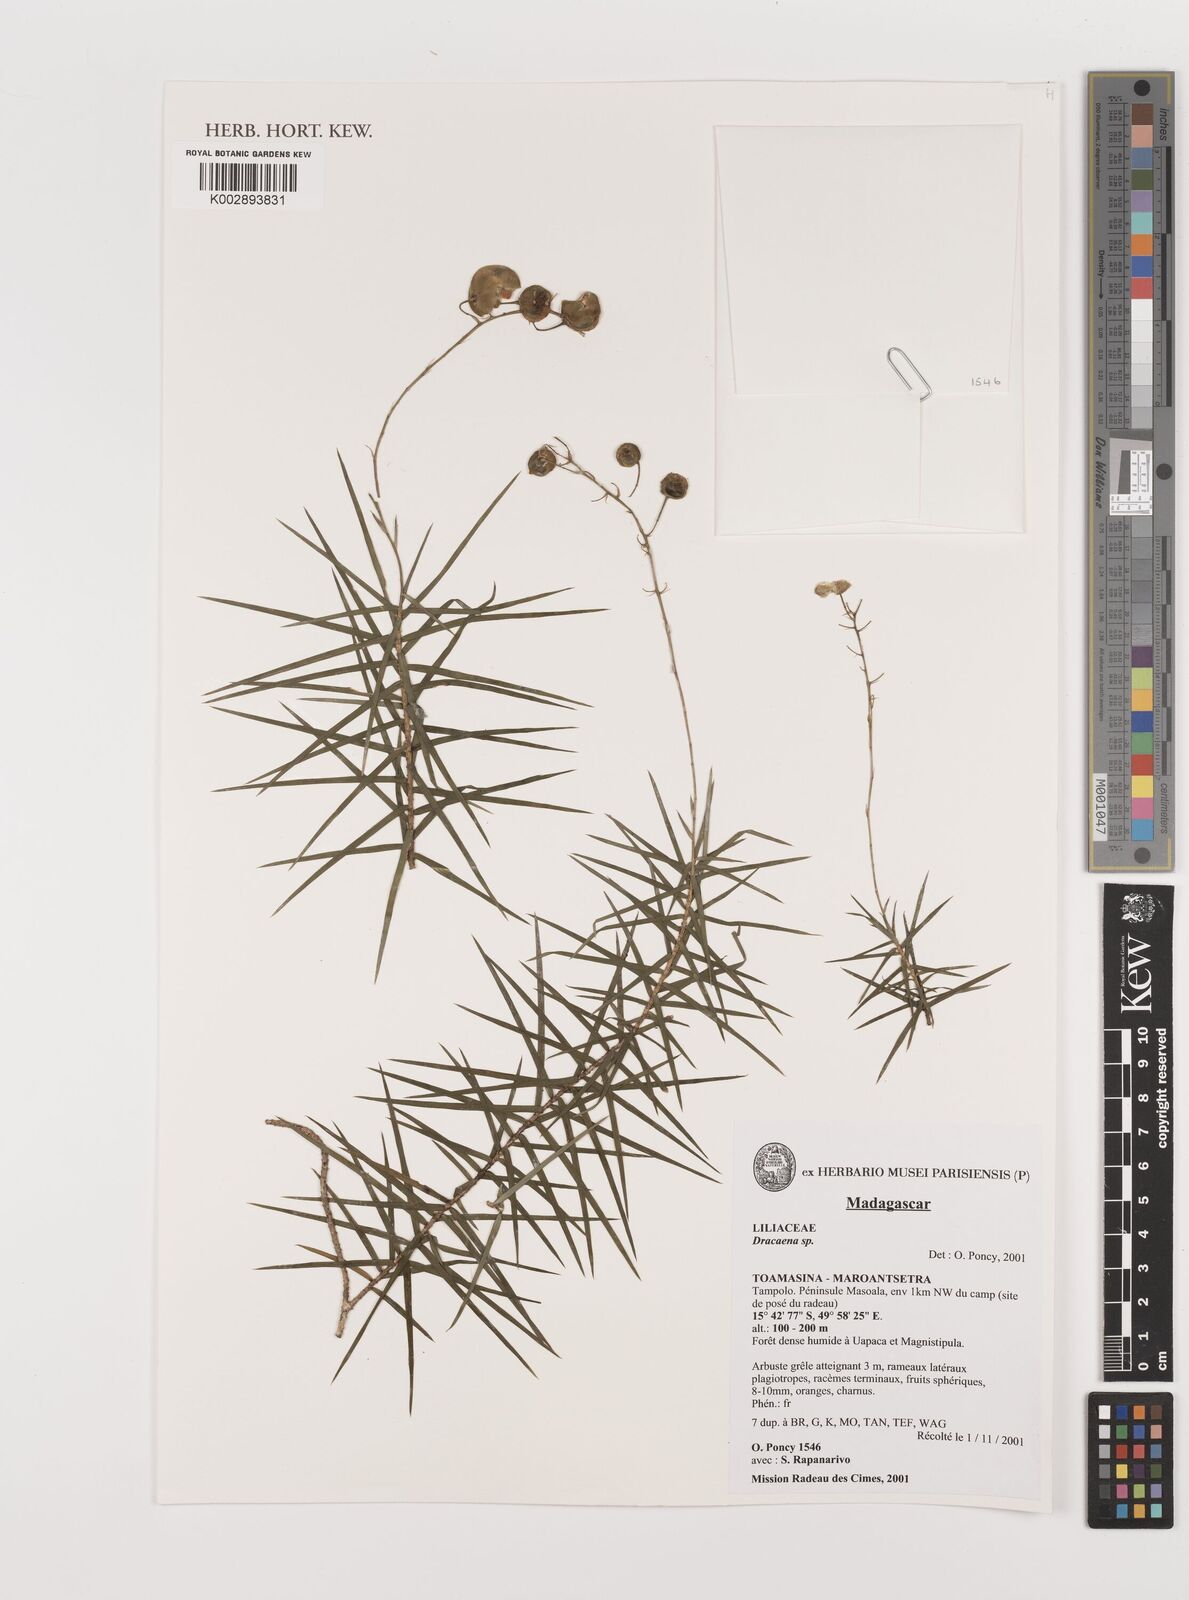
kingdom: Plantae
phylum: Tracheophyta
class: Liliopsida
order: Asparagales
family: Asparagaceae
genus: Dracaena
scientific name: Dracaena
